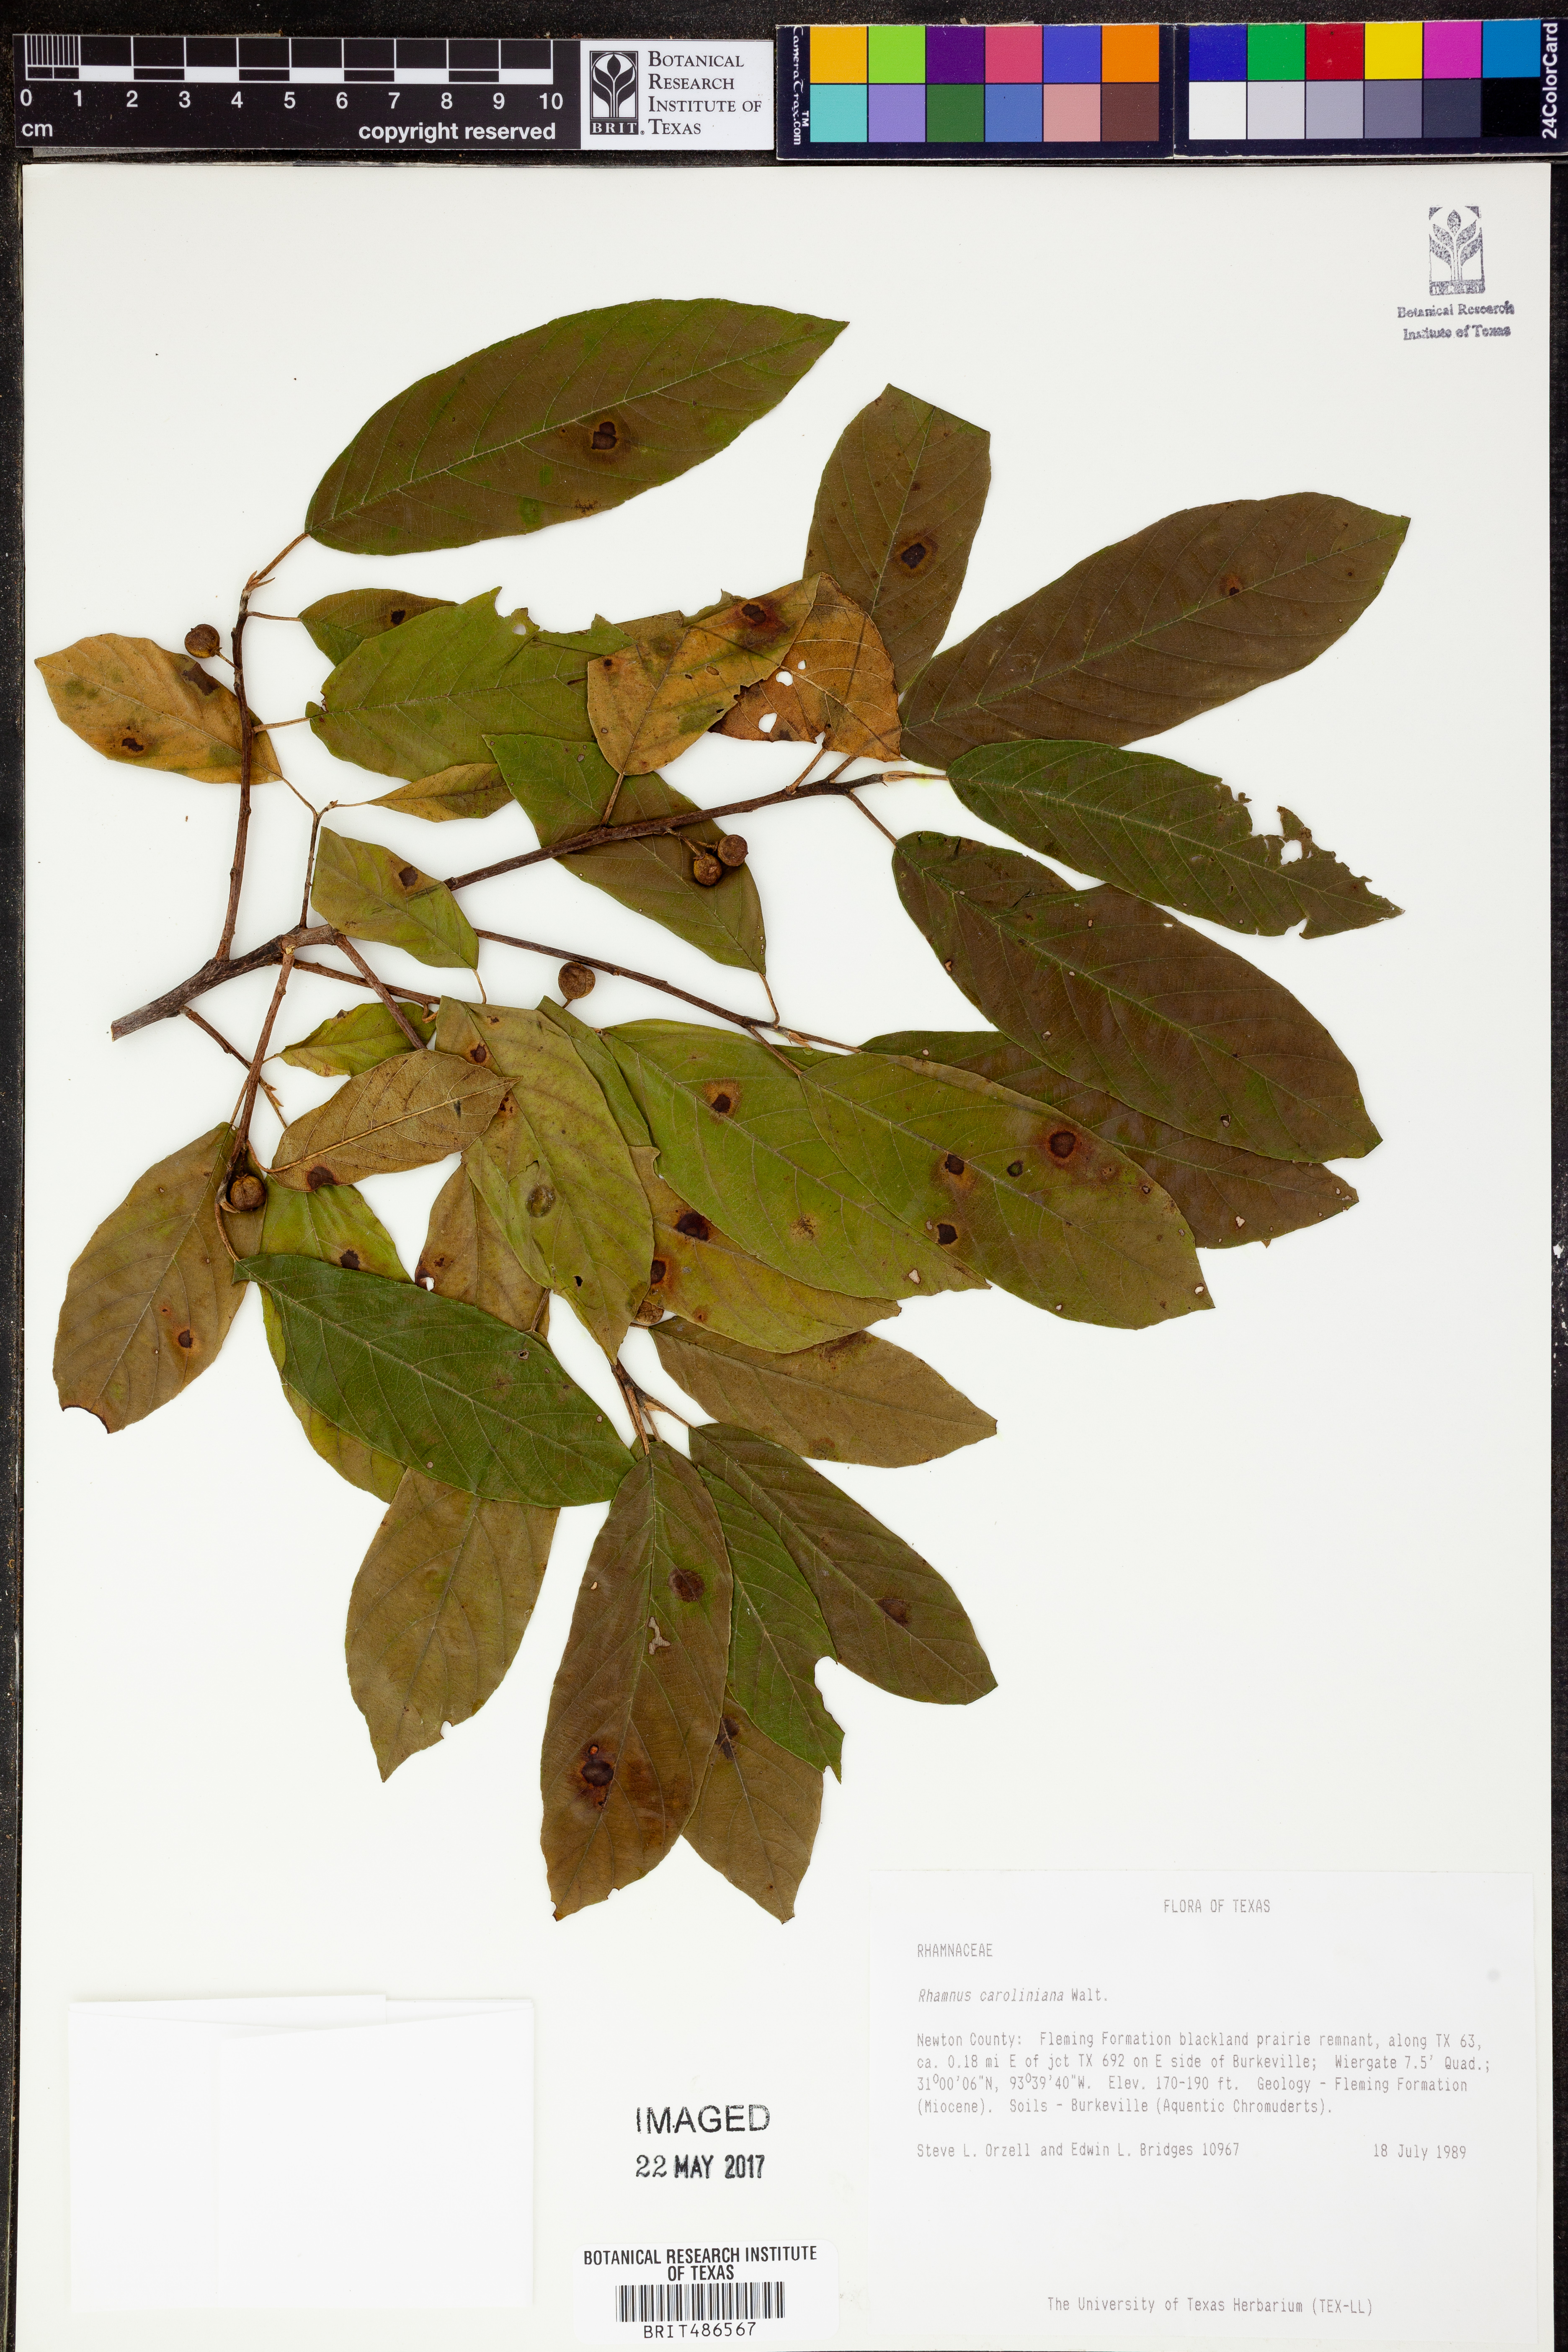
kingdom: Plantae
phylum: Tracheophyta
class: Magnoliopsida
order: Rosales
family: Rhamnaceae
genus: Frangula
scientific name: Frangula caroliniana
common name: Carolina buckthorn
